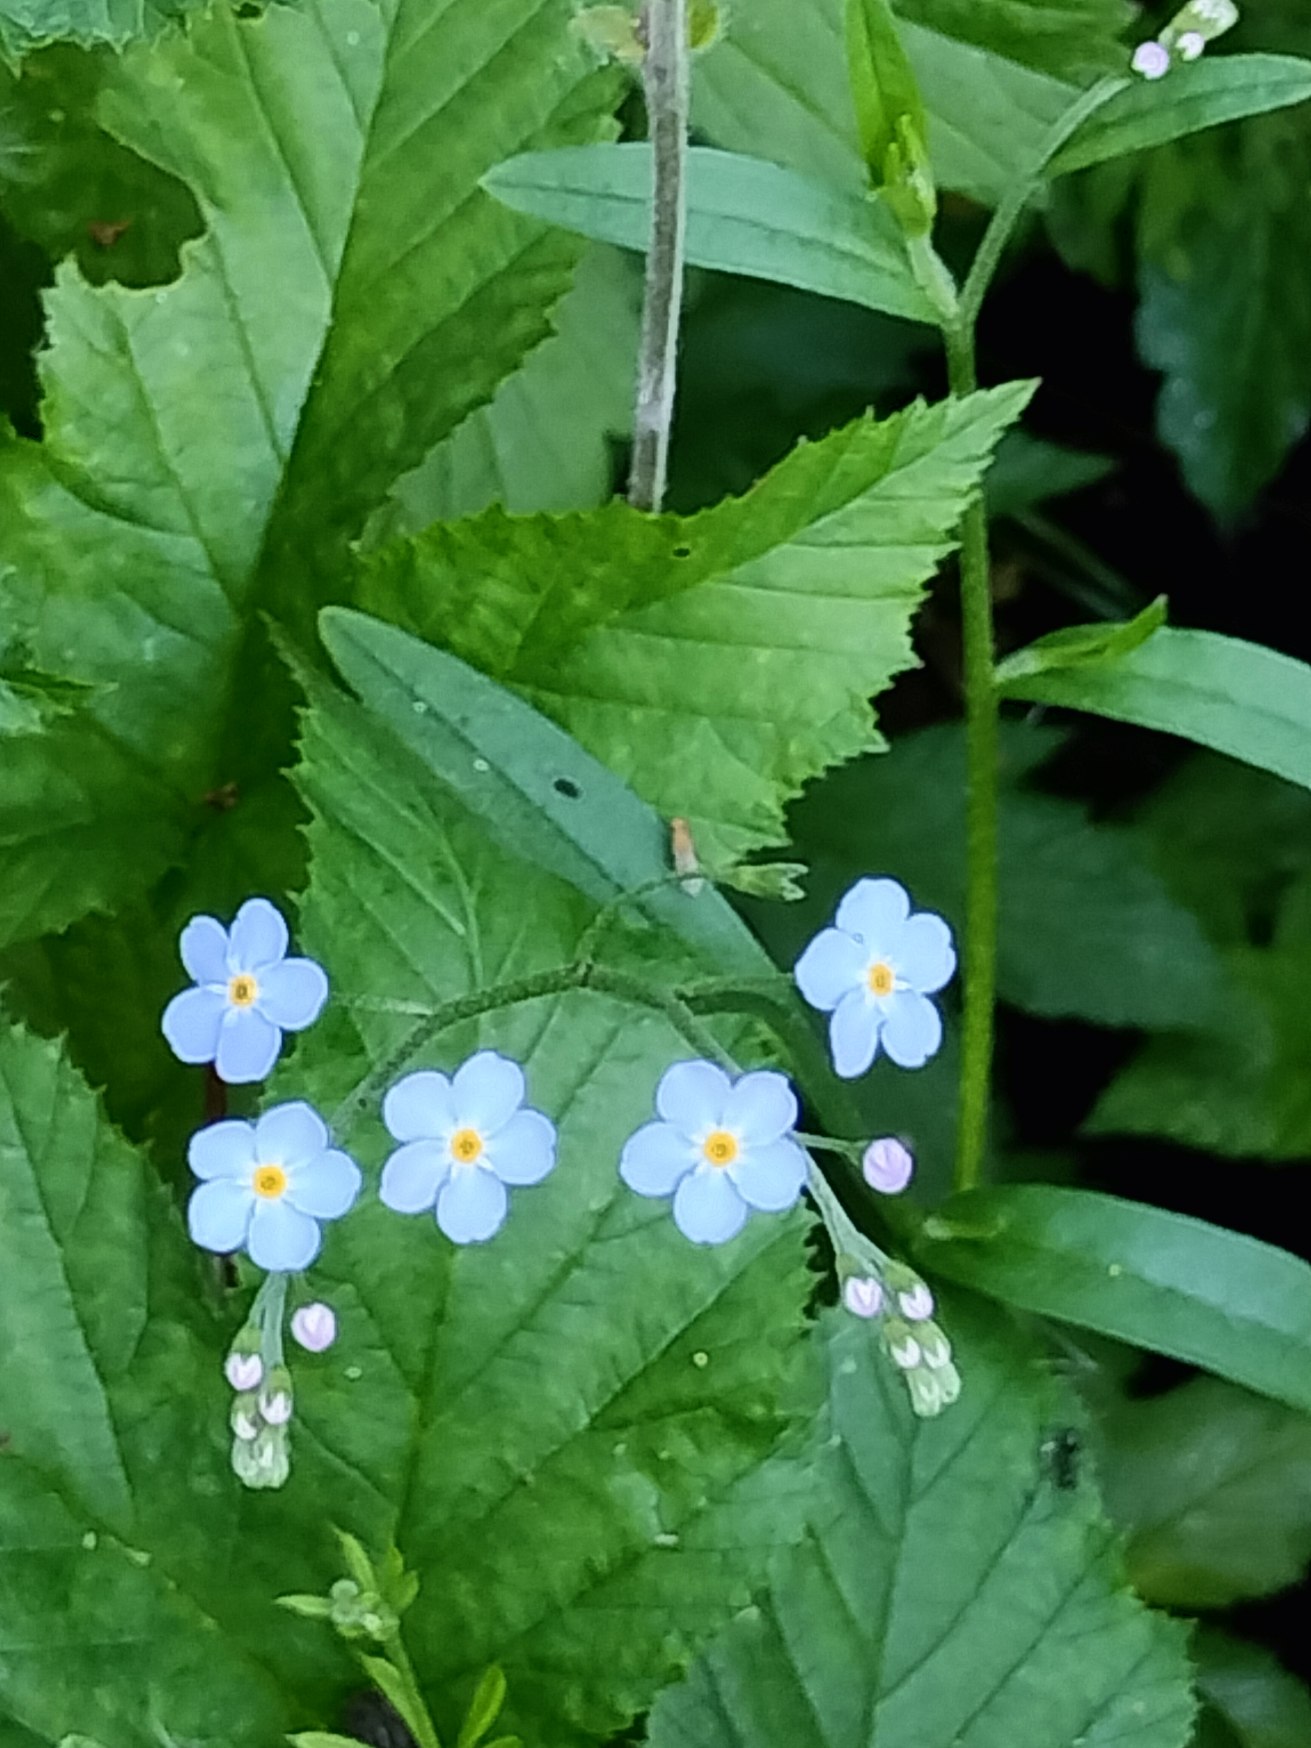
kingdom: Plantae
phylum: Tracheophyta
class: Magnoliopsida
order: Boraginales
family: Boraginaceae
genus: Myosotis
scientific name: Myosotis scorpioides
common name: Eng-forglemmigej
